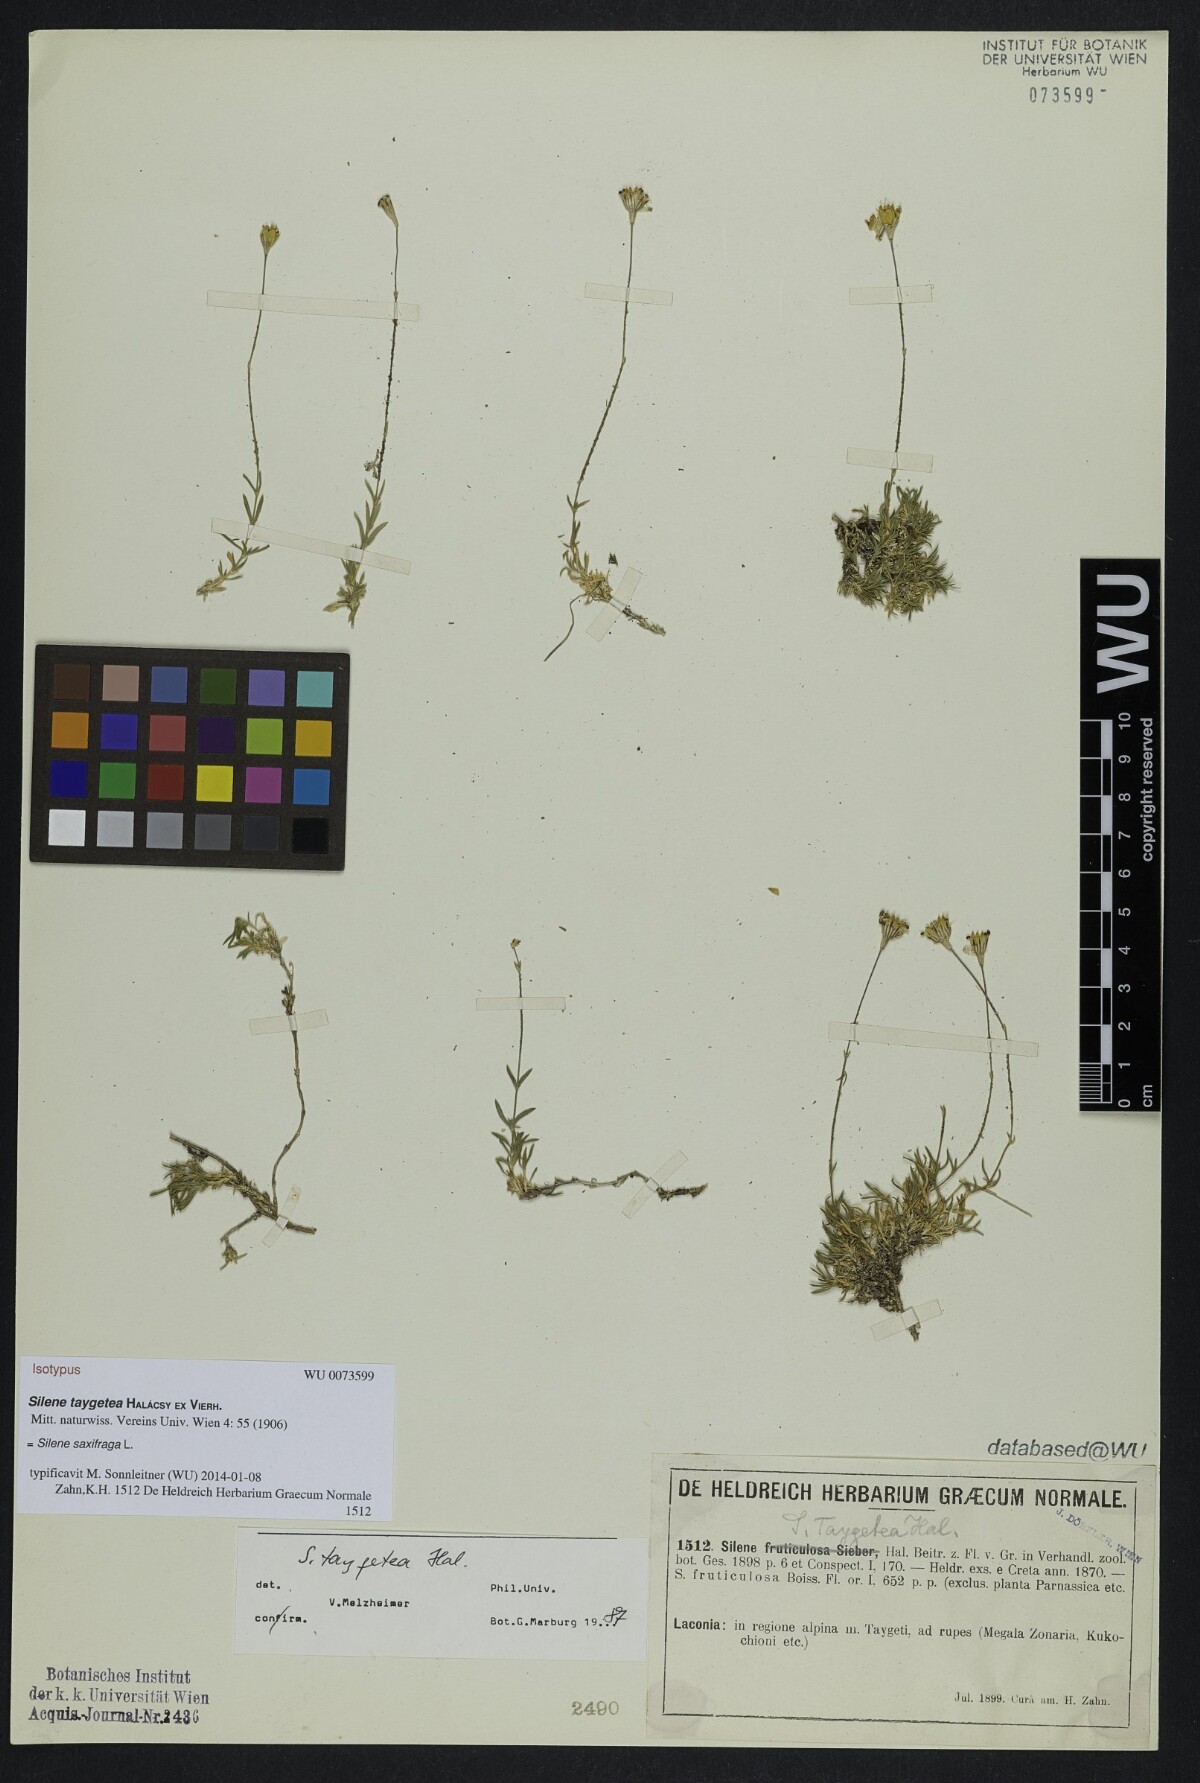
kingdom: Plantae
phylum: Tracheophyta
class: Magnoliopsida
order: Caryophyllales
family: Caryophyllaceae
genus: Silene
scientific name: Silene taygetea
